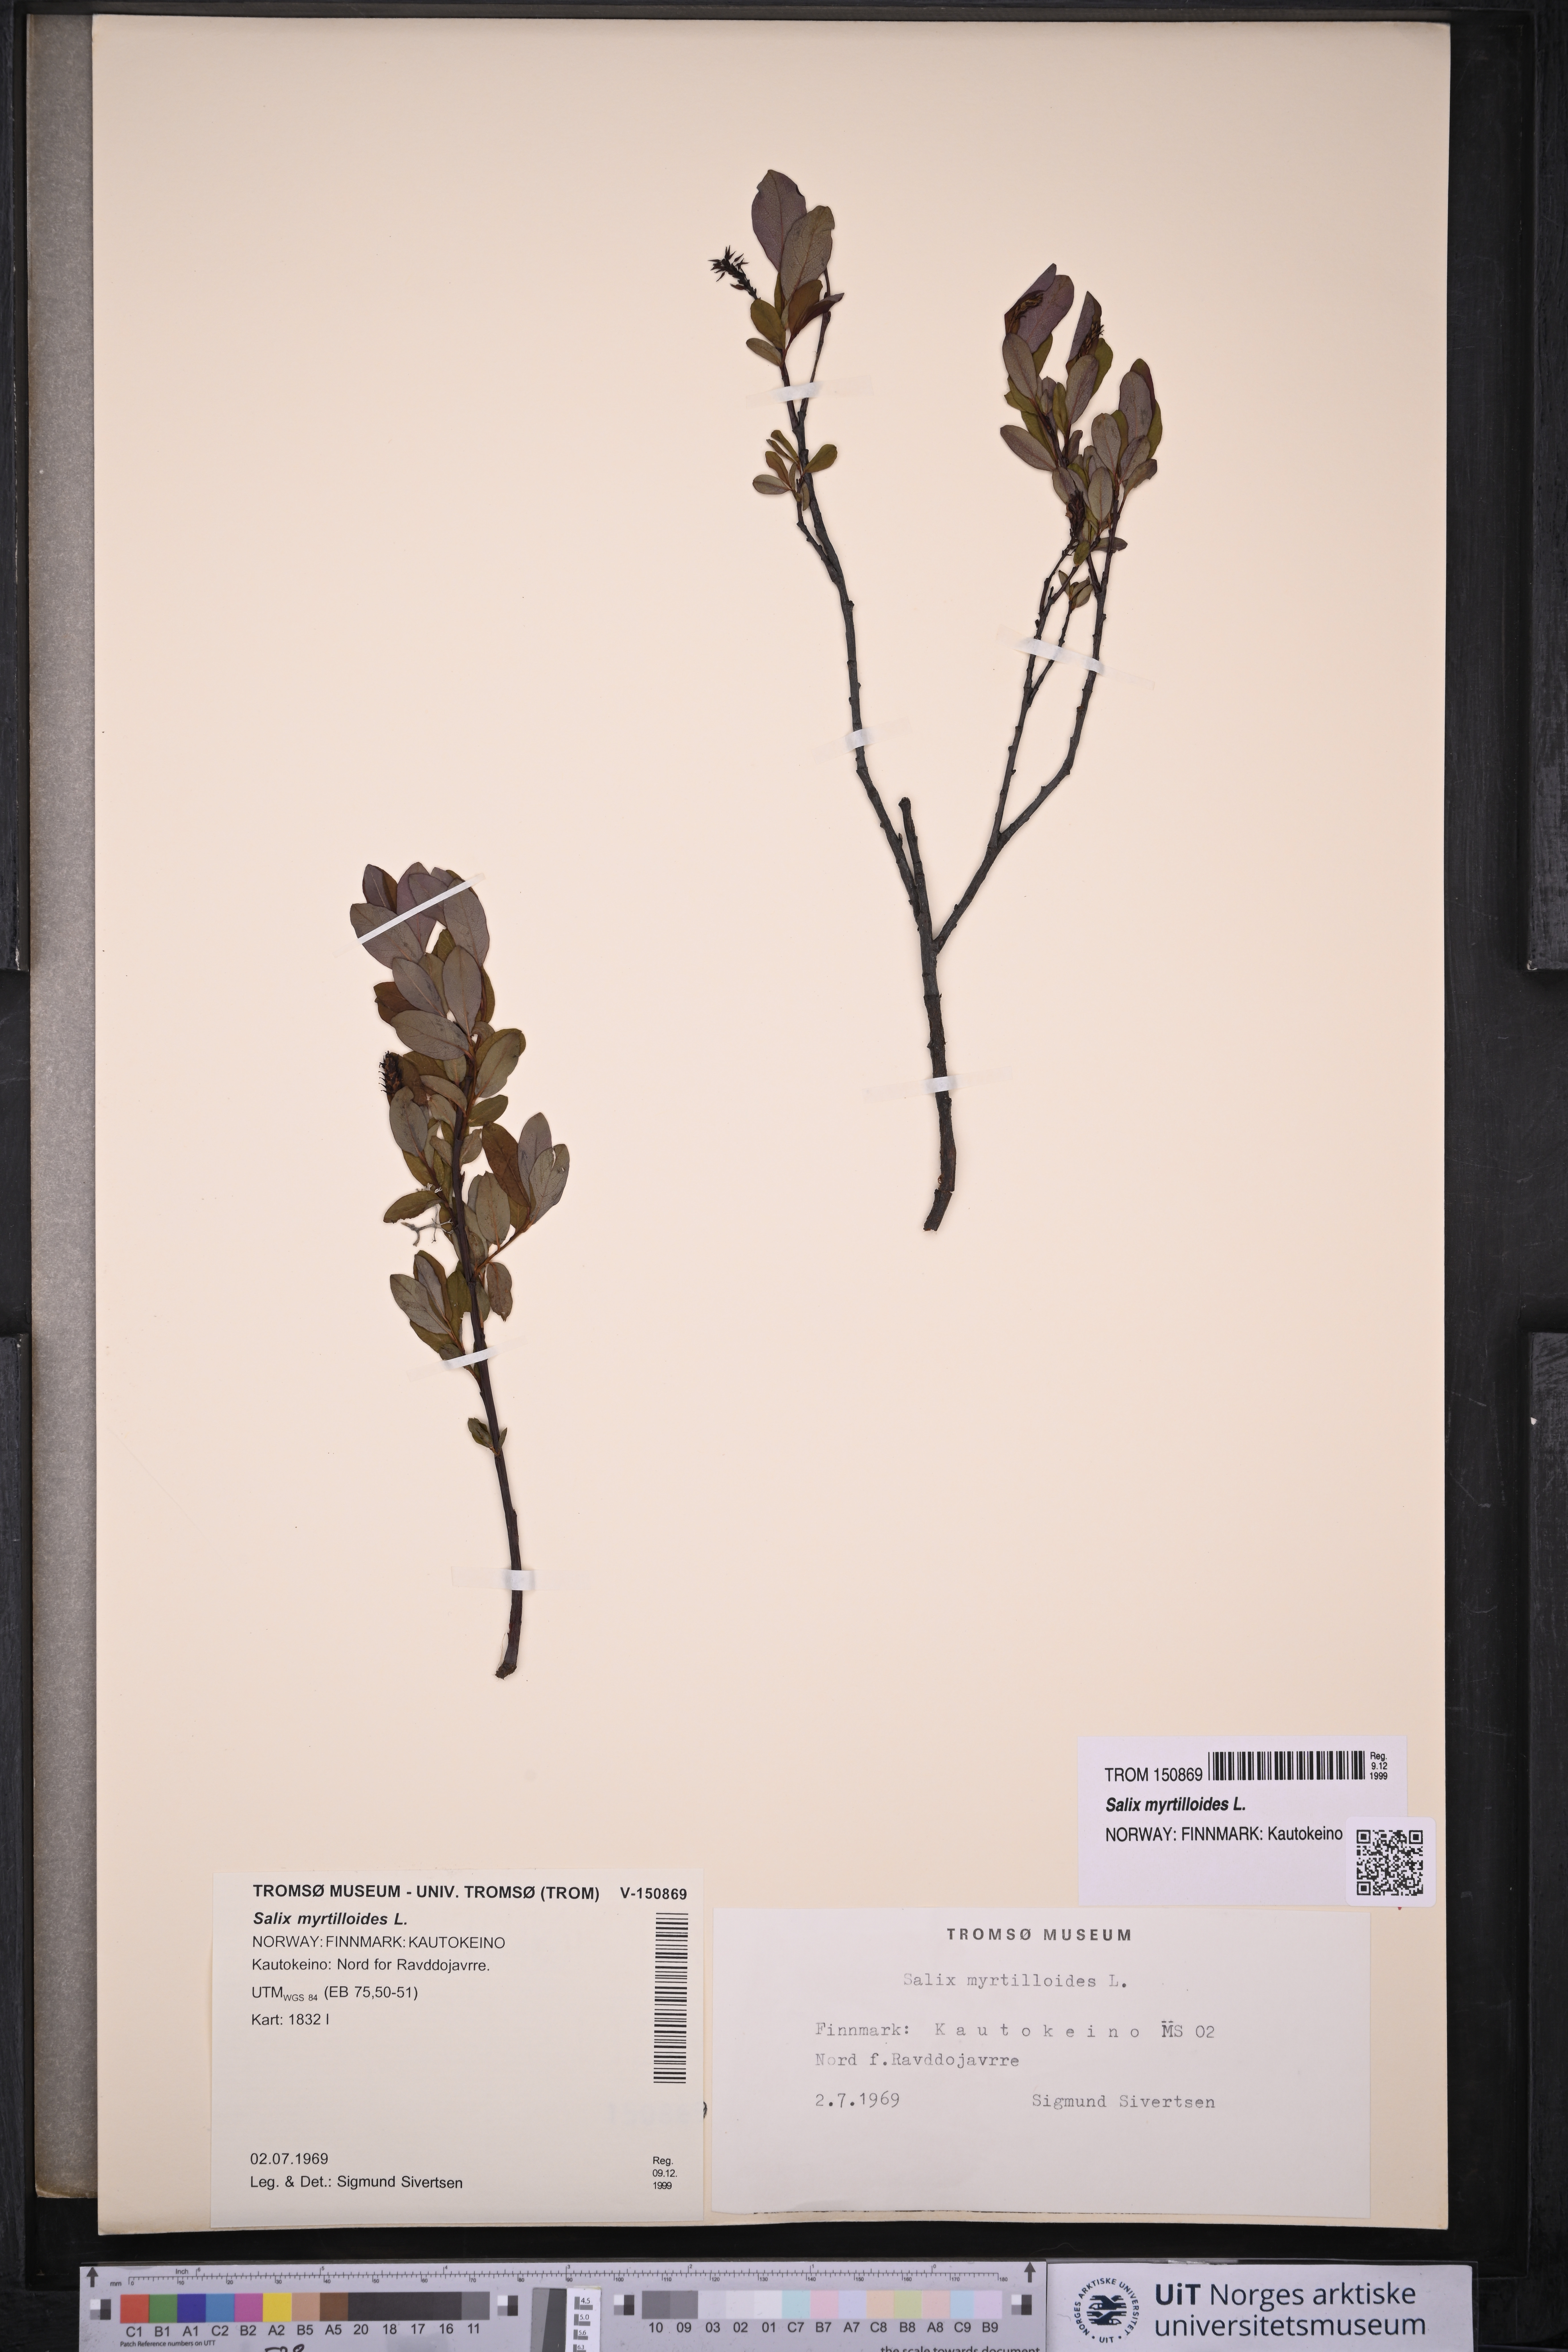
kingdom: Plantae
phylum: Tracheophyta
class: Magnoliopsida
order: Malpighiales
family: Salicaceae
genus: Salix
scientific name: Salix myrtilloides
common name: Myrtle-leaved willow
